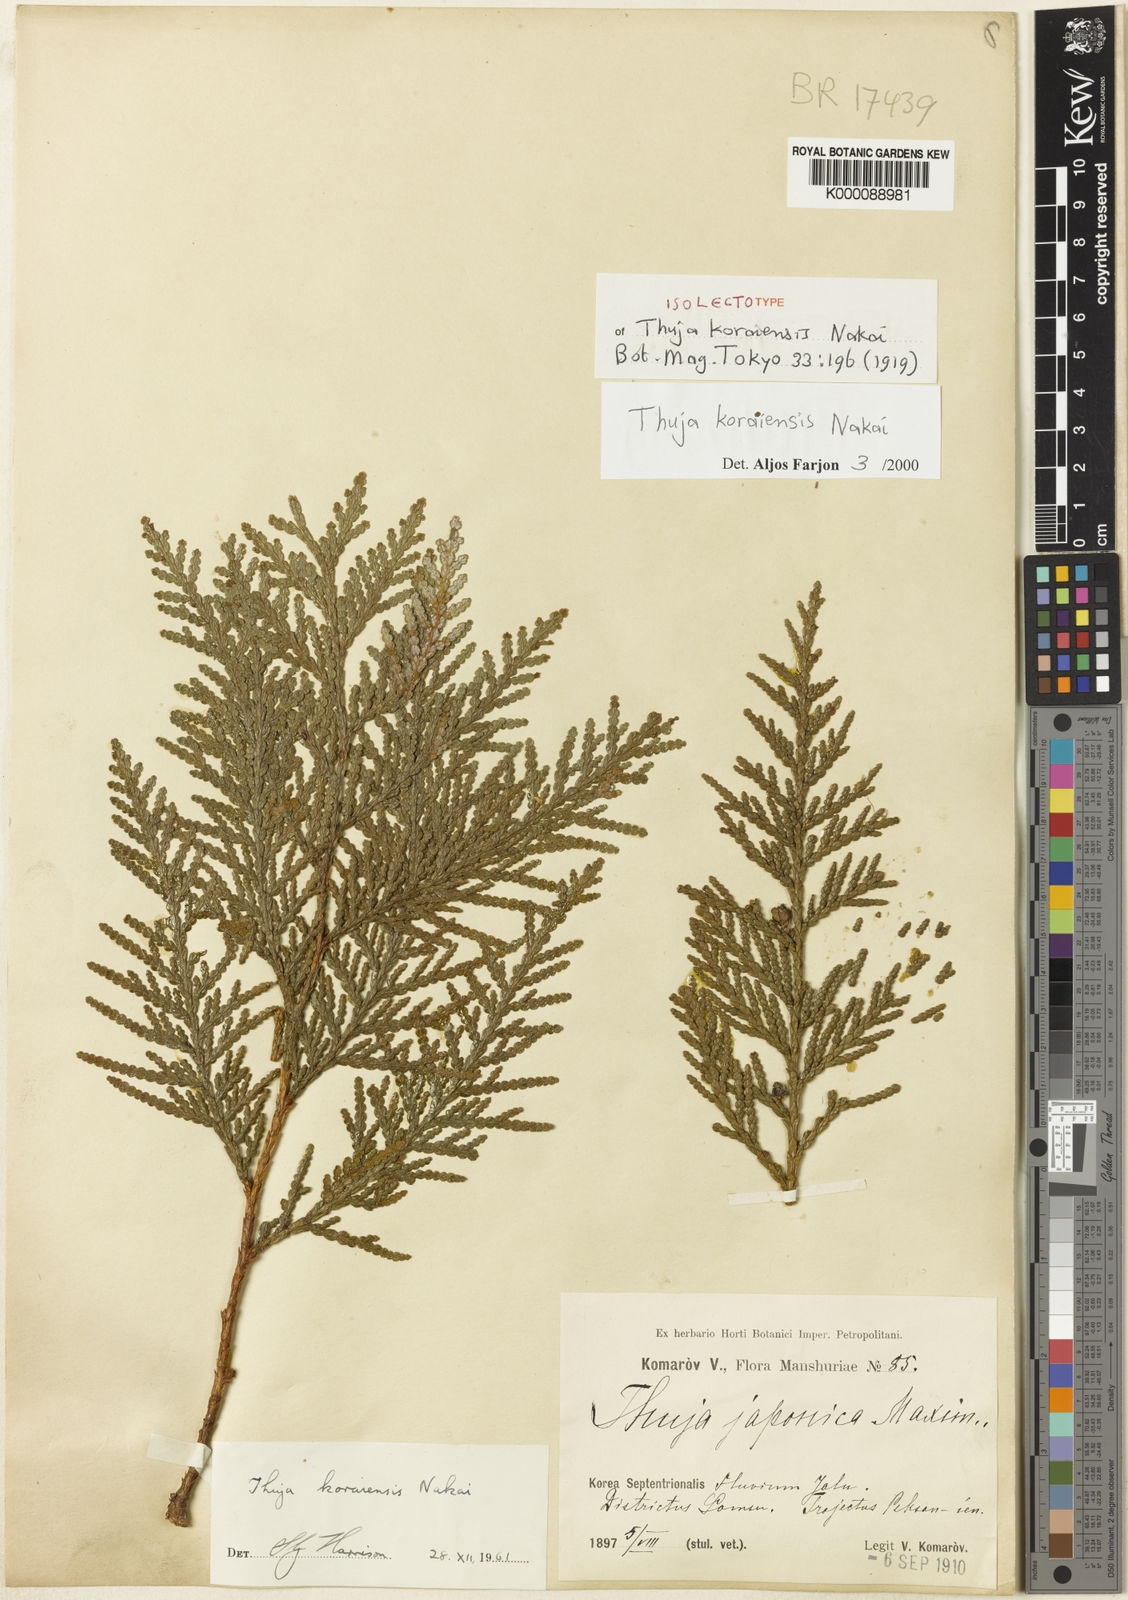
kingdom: Plantae
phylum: Tracheophyta
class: Pinopsida
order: Pinales
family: Cupressaceae
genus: Thuja
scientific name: Thuja koraiensis
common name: Korean arbor-vitae
